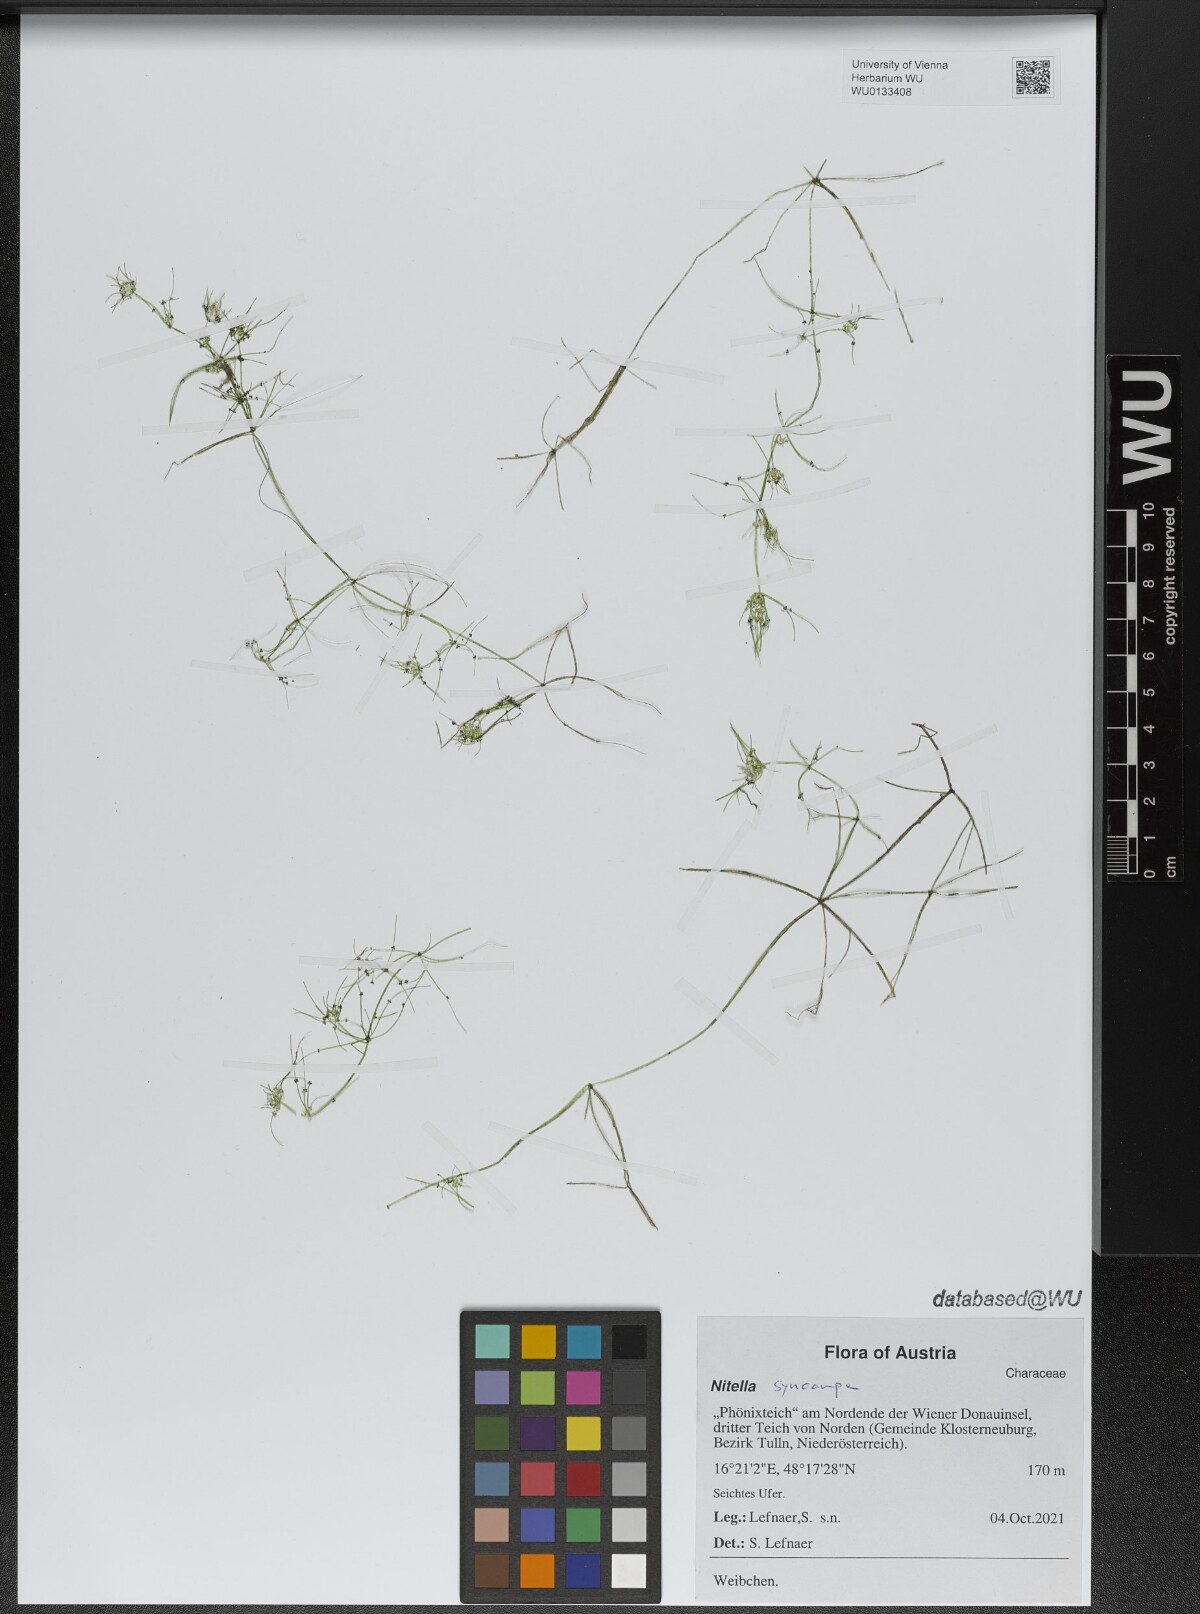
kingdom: Plantae
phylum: Charophyta
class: Charophyceae
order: Charales
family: Characeae
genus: Nitella
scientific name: Nitella syncarpa
